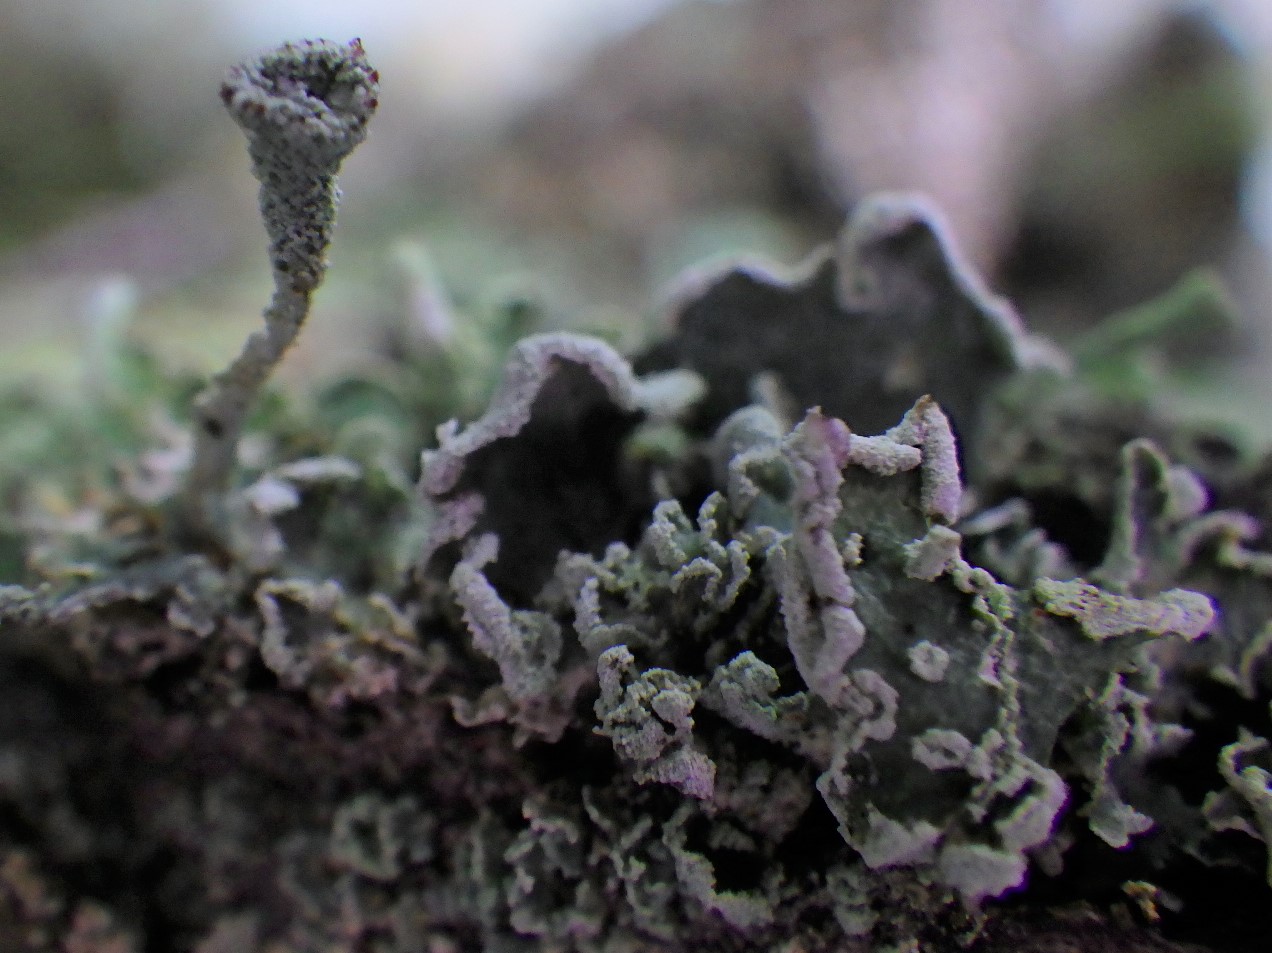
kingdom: Fungi
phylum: Ascomycota
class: Lecanoromycetes
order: Lecanorales
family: Cladoniaceae
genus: Cladonia
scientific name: Cladonia digitata
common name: finger-bægerlav
